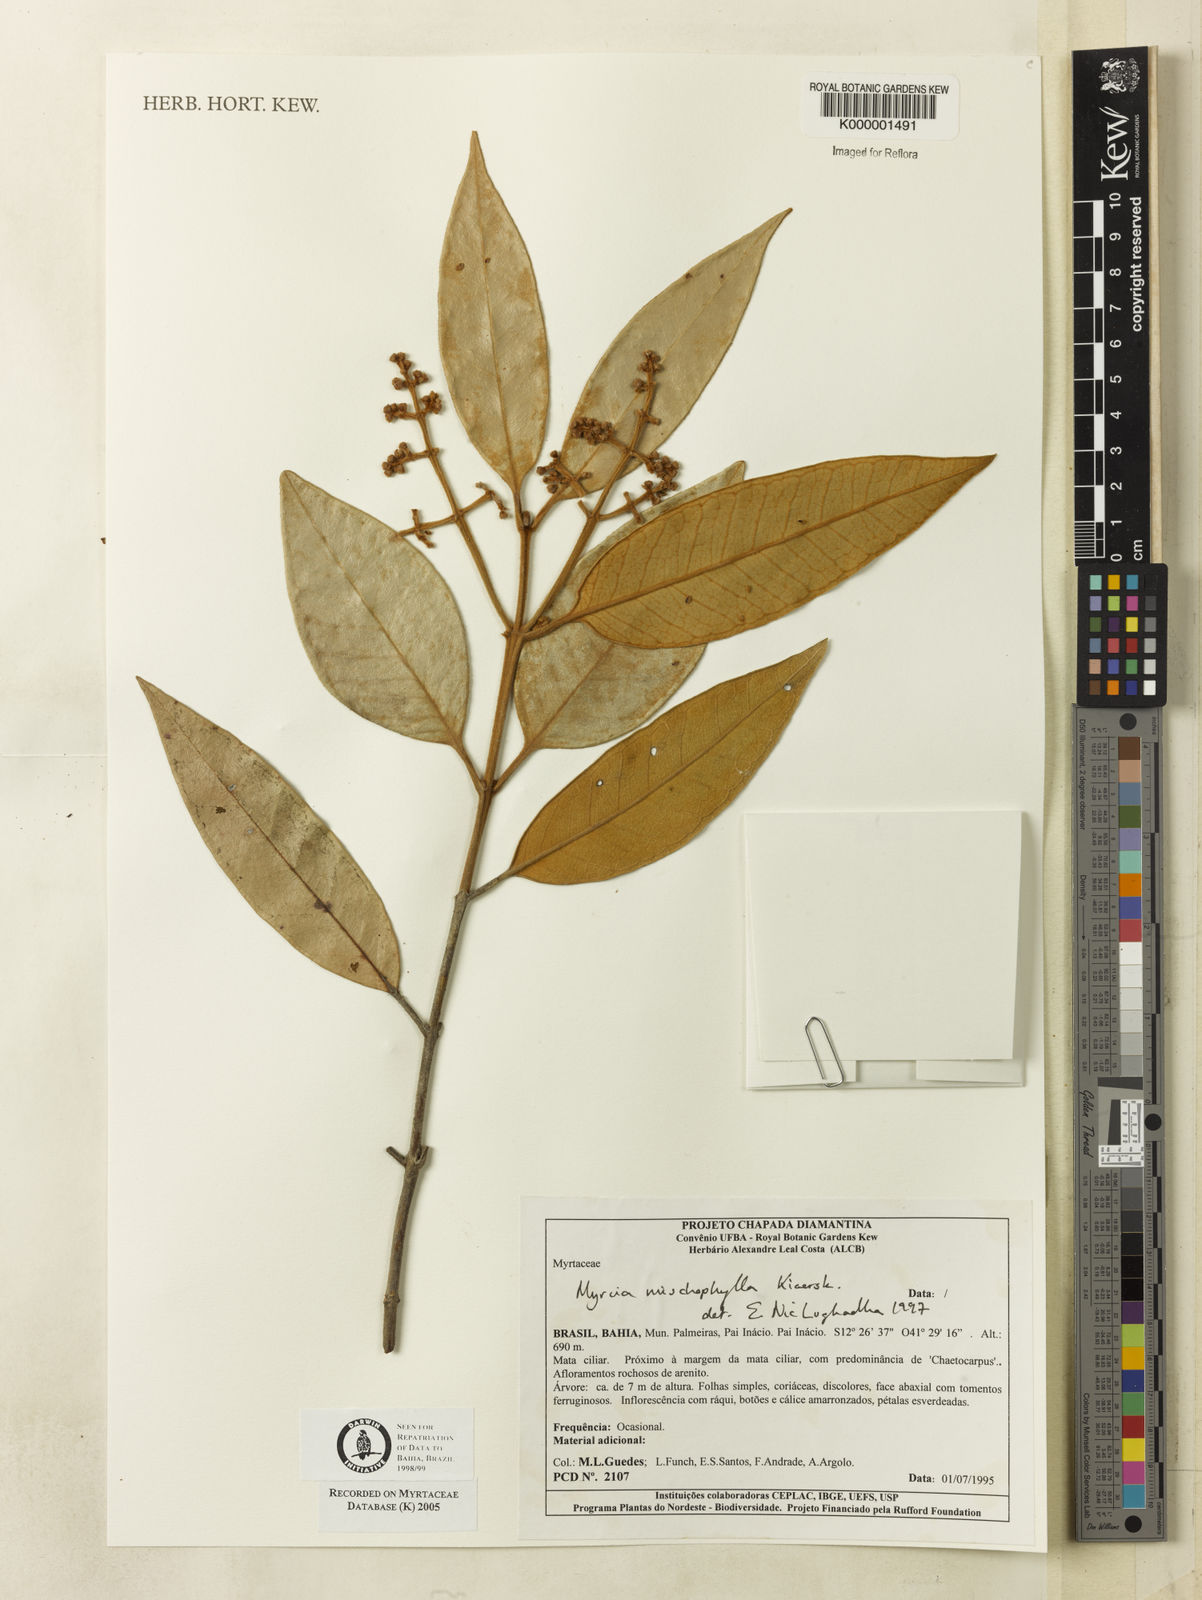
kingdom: Plantae
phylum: Tracheophyta
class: Magnoliopsida
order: Myrtales
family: Myrtaceae
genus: Myrcia
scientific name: Myrcia mischophylla
